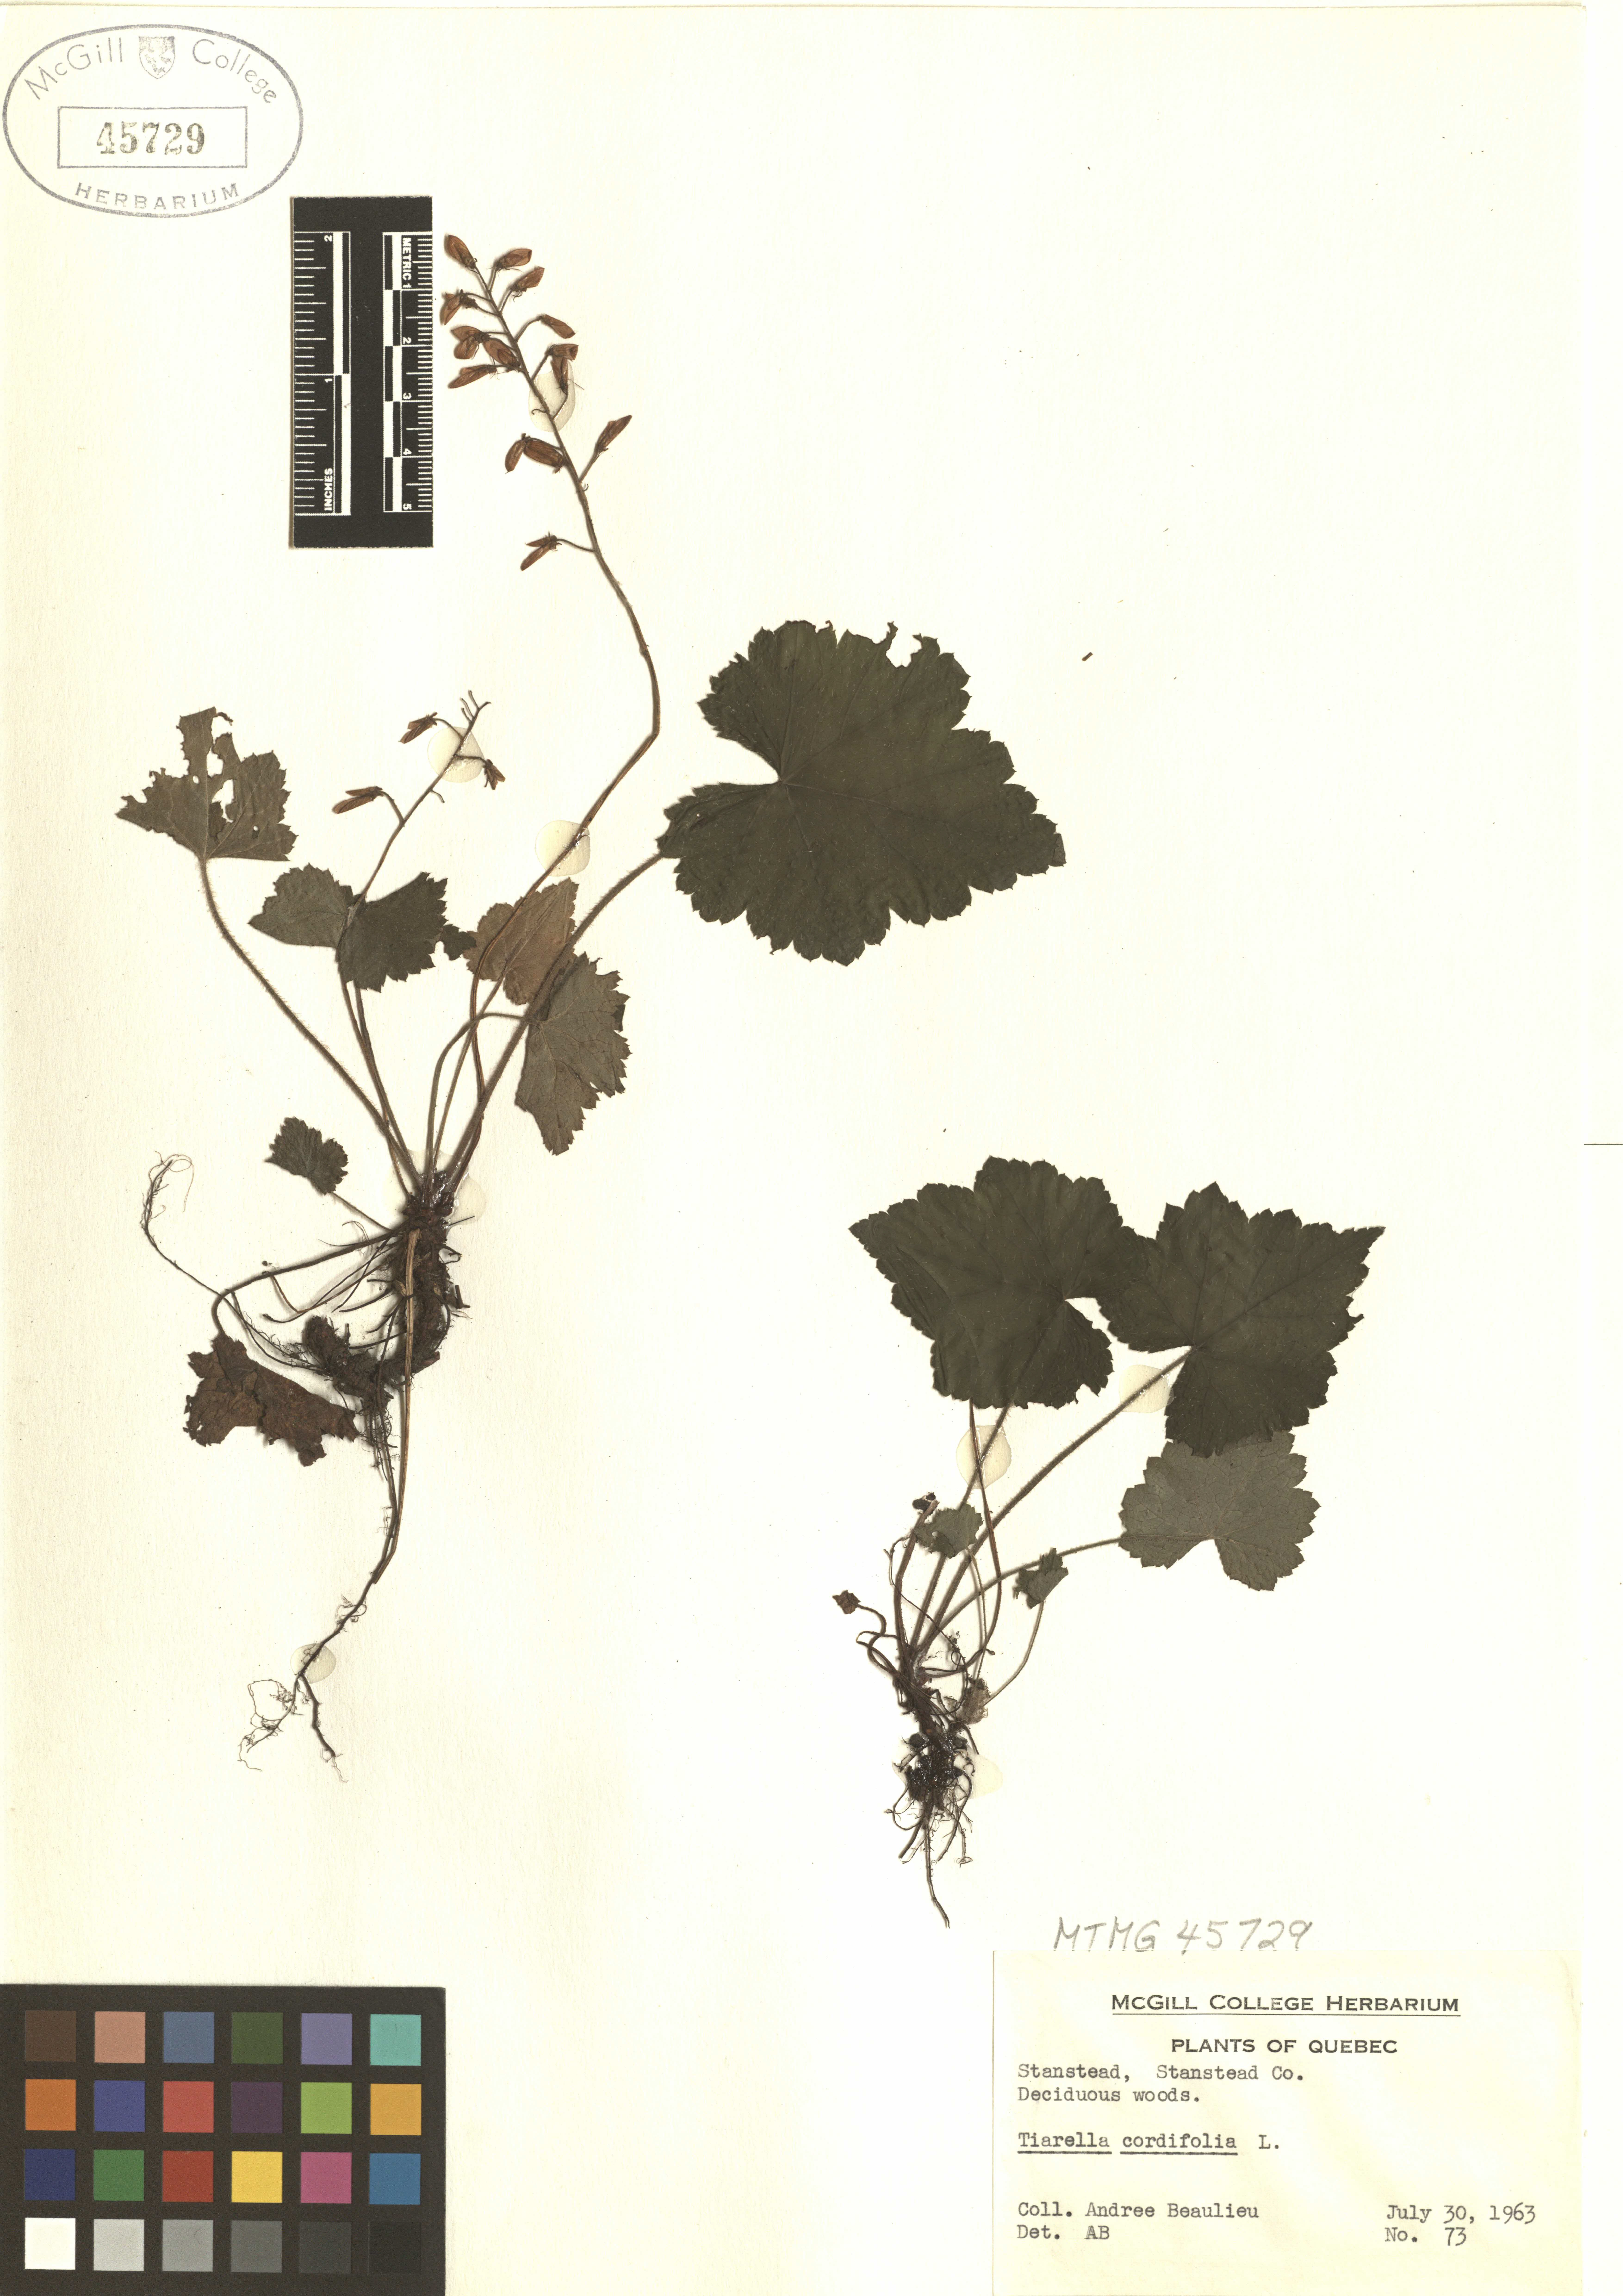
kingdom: Plantae
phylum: Tracheophyta
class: Magnoliopsida
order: Saxifragales
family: Saxifragaceae
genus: Tiarella
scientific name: Tiarella cordifolia
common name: Foamflower
